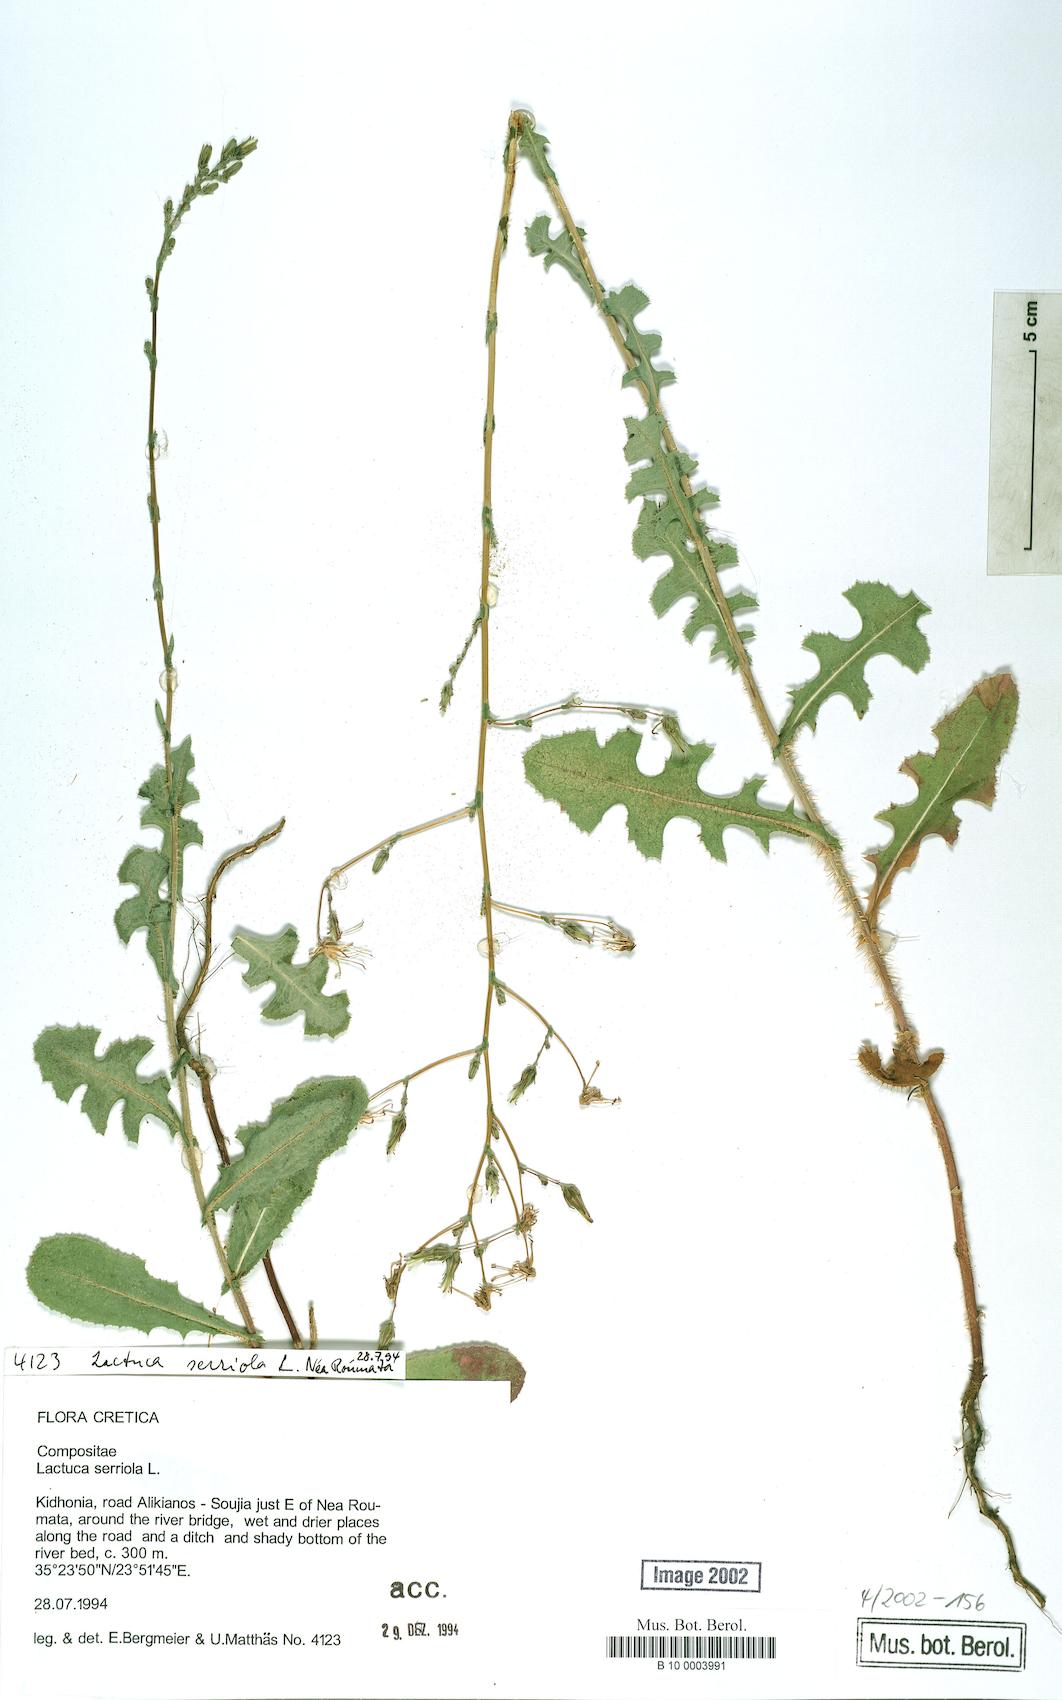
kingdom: Plantae
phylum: Tracheophyta
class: Magnoliopsida
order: Asterales
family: Asteraceae
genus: Lactuca
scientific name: Lactuca serriola
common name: Prickly lettuce
